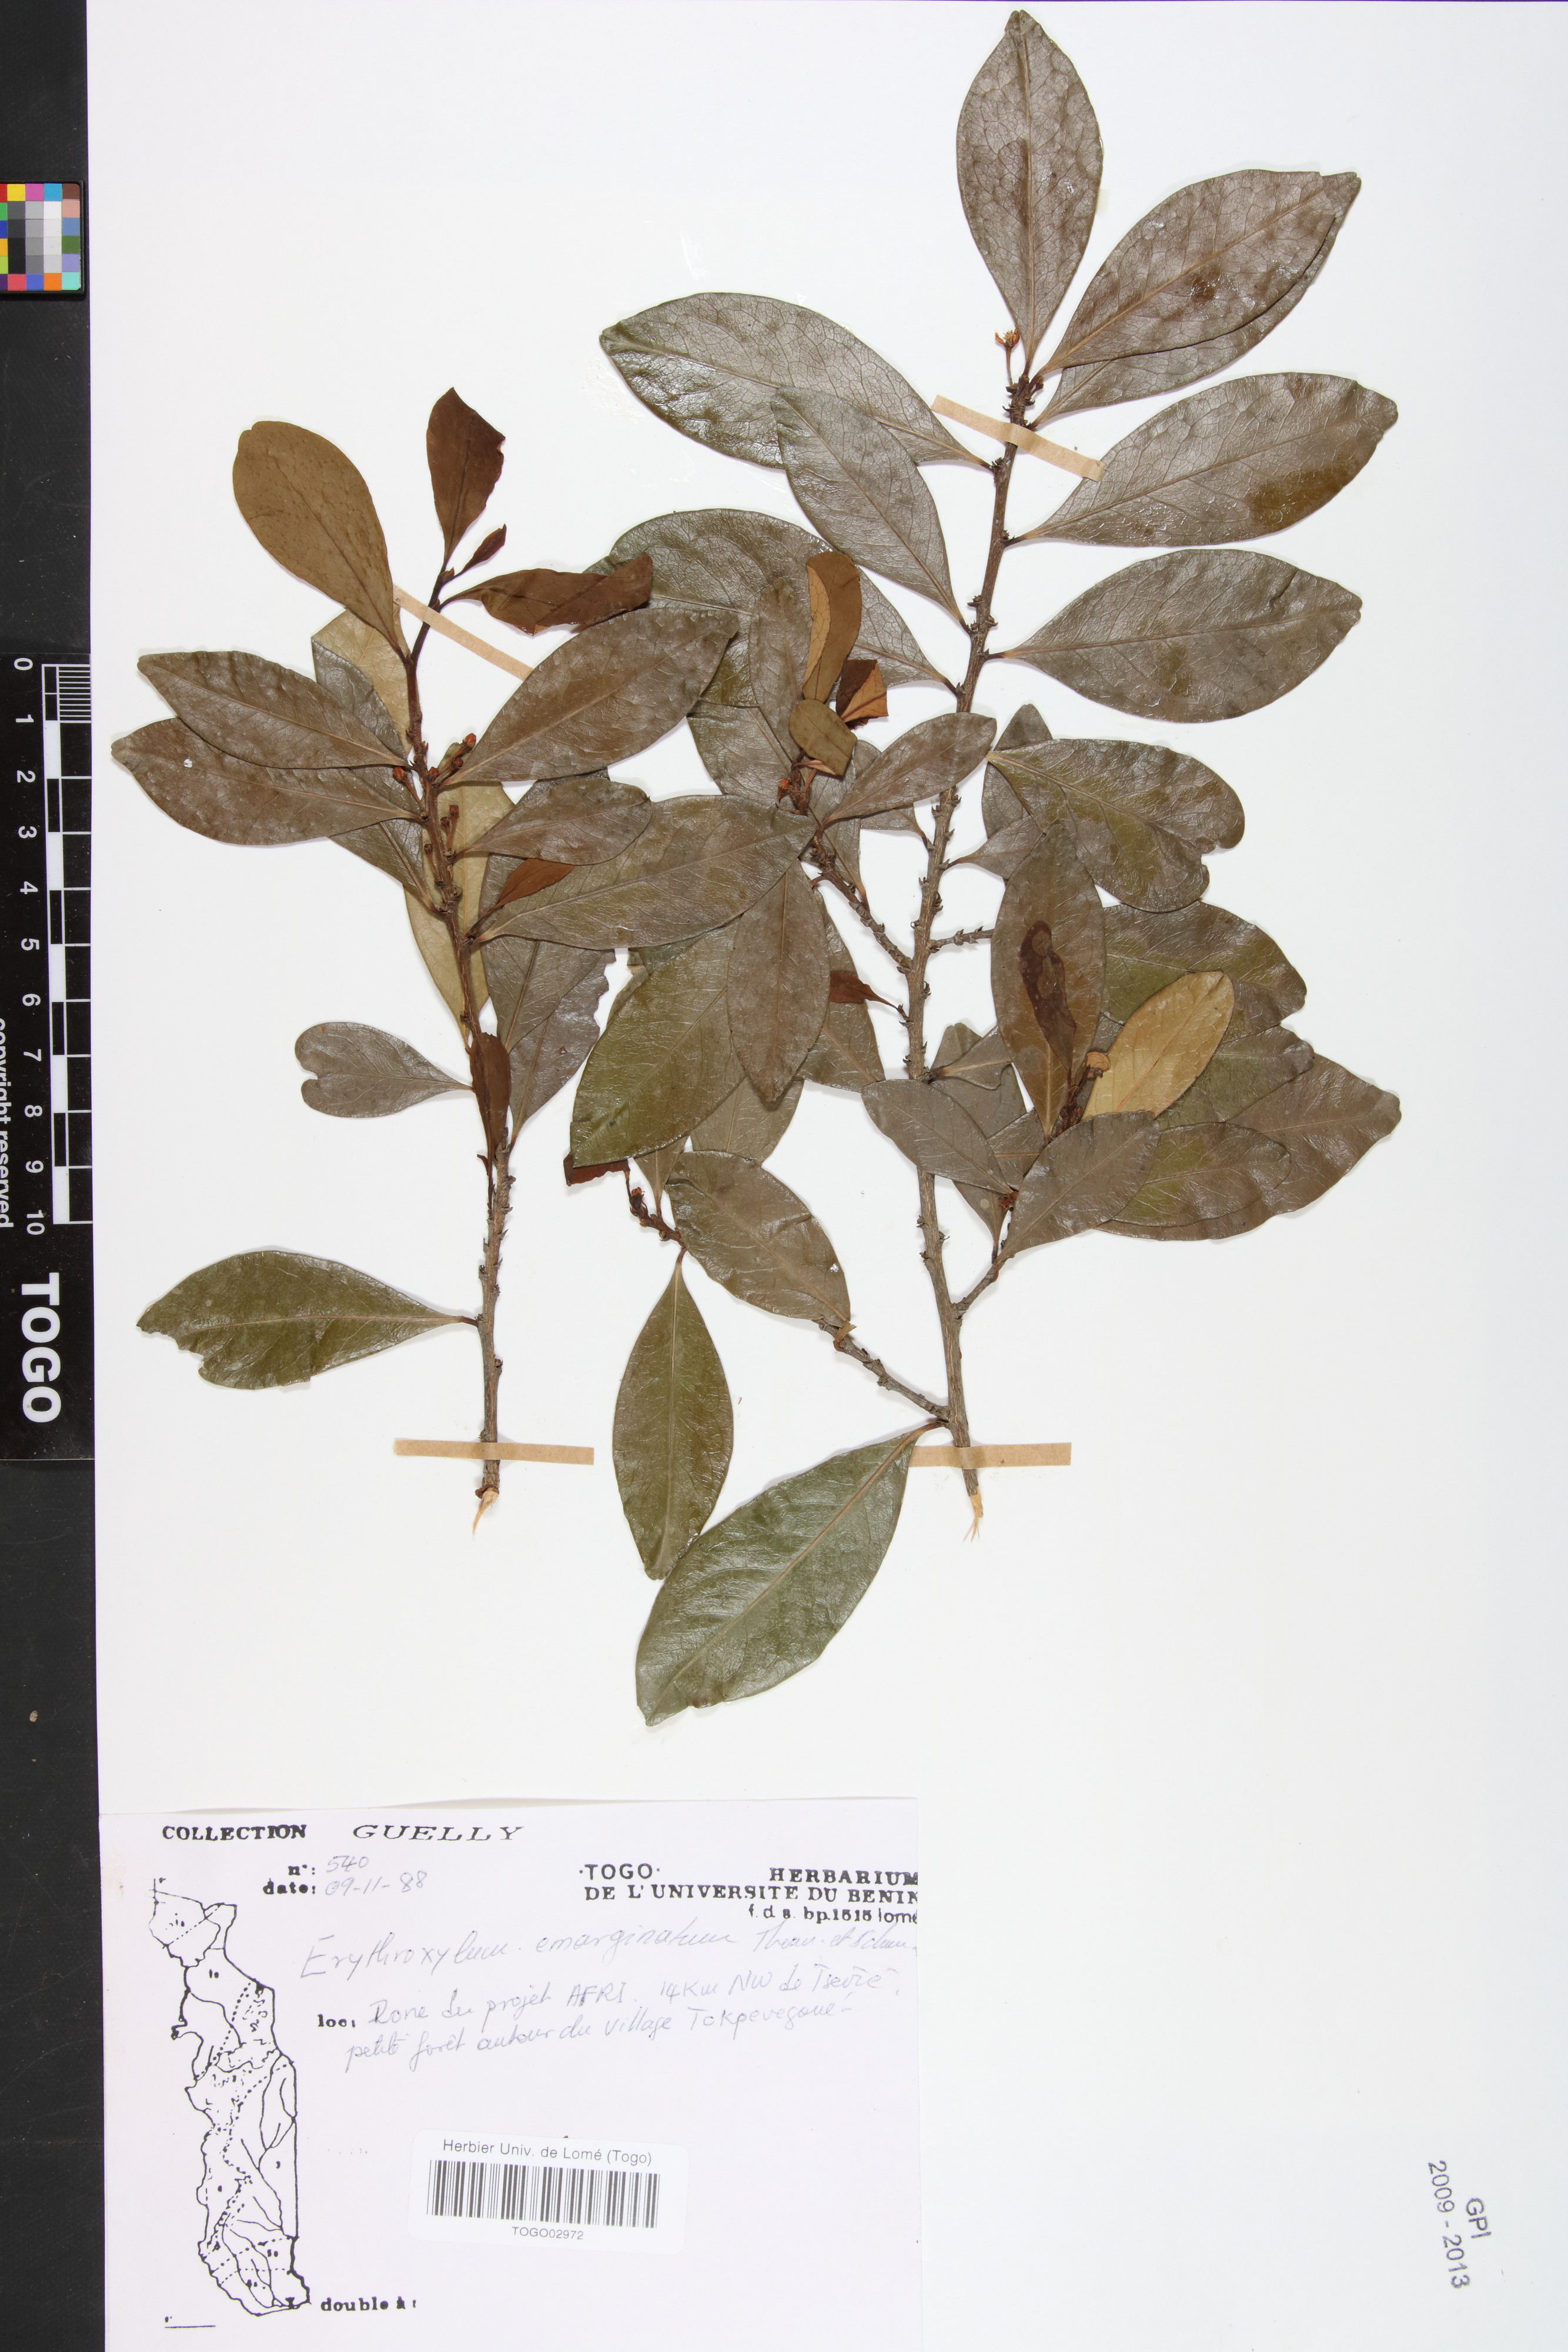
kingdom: Plantae
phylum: Tracheophyta
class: Magnoliopsida
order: Malpighiales
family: Erythroxylaceae
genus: Erythroxylum
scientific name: Erythroxylum emarginatum
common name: African coca-tree
